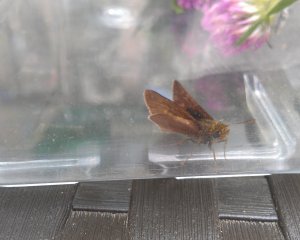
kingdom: Animalia
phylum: Arthropoda
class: Insecta
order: Lepidoptera
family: Hesperiidae
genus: Euphyes
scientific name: Euphyes vestris
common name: Dun Skipper
